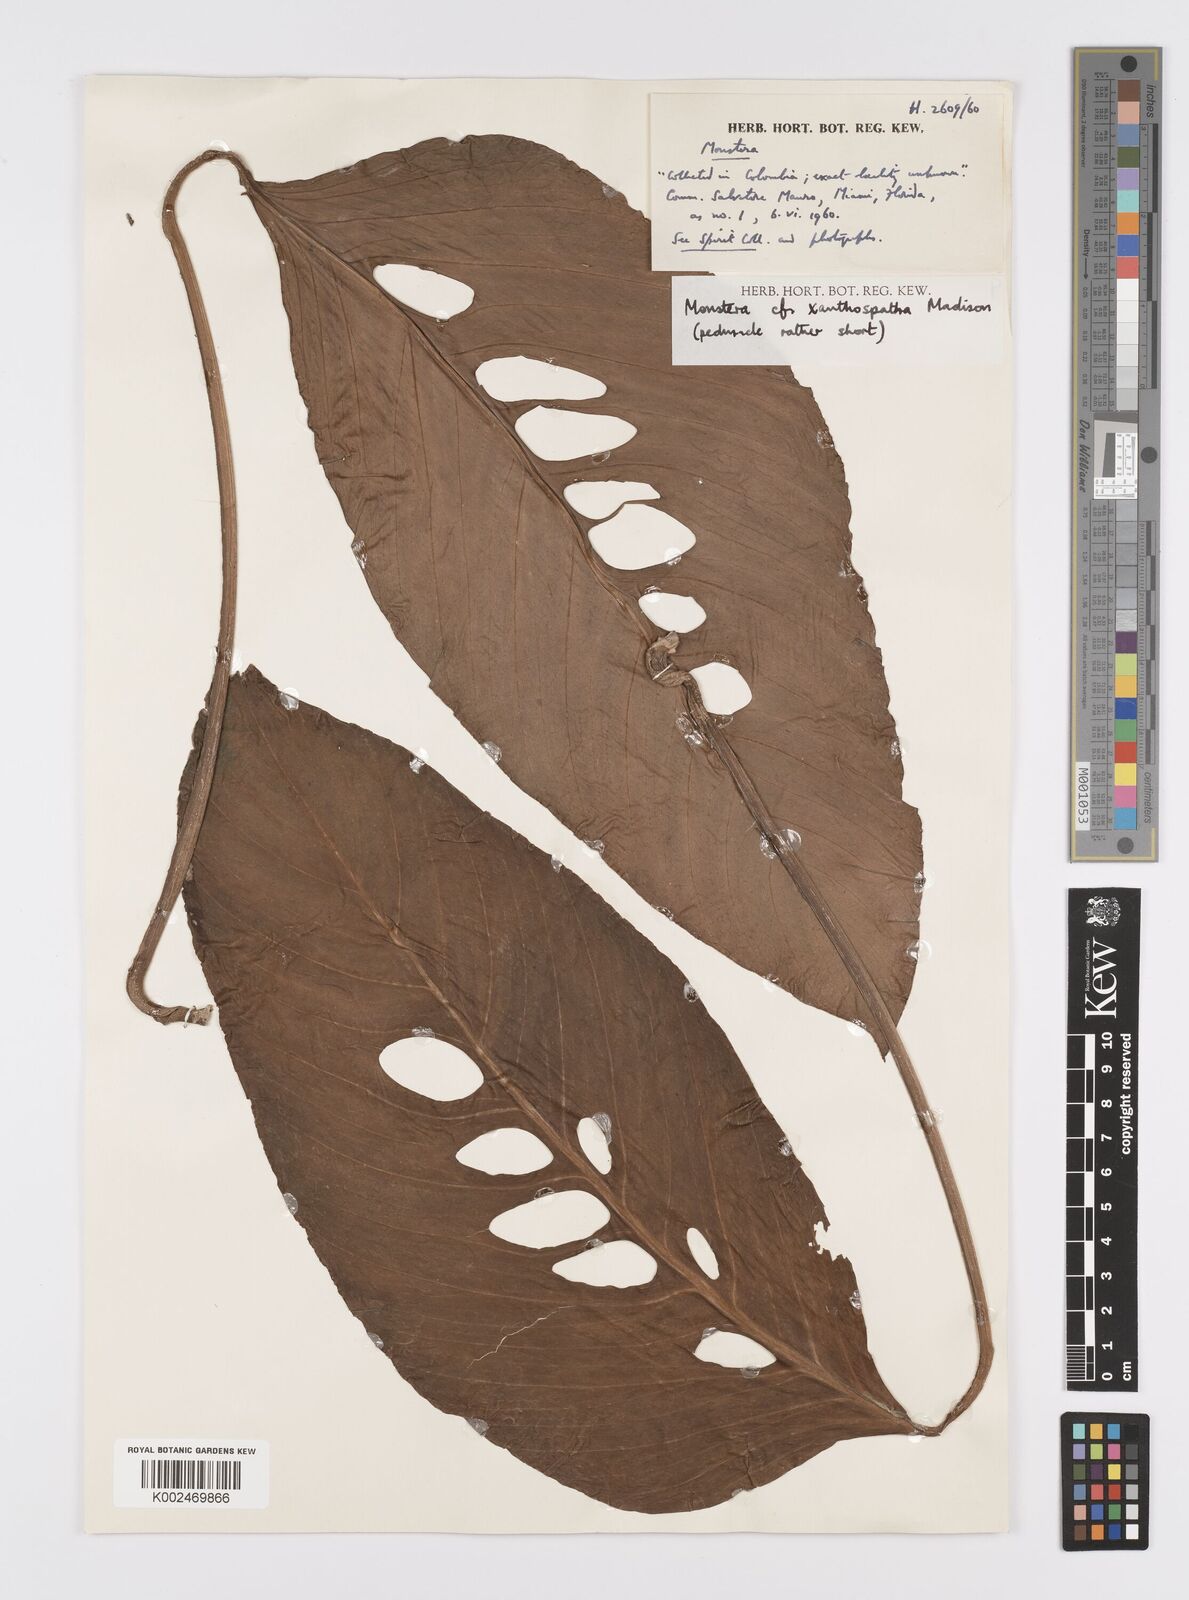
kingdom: Plantae
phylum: Tracheophyta
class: Liliopsida
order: Alismatales
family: Araceae
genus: Monstera
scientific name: Monstera xanthospatha
